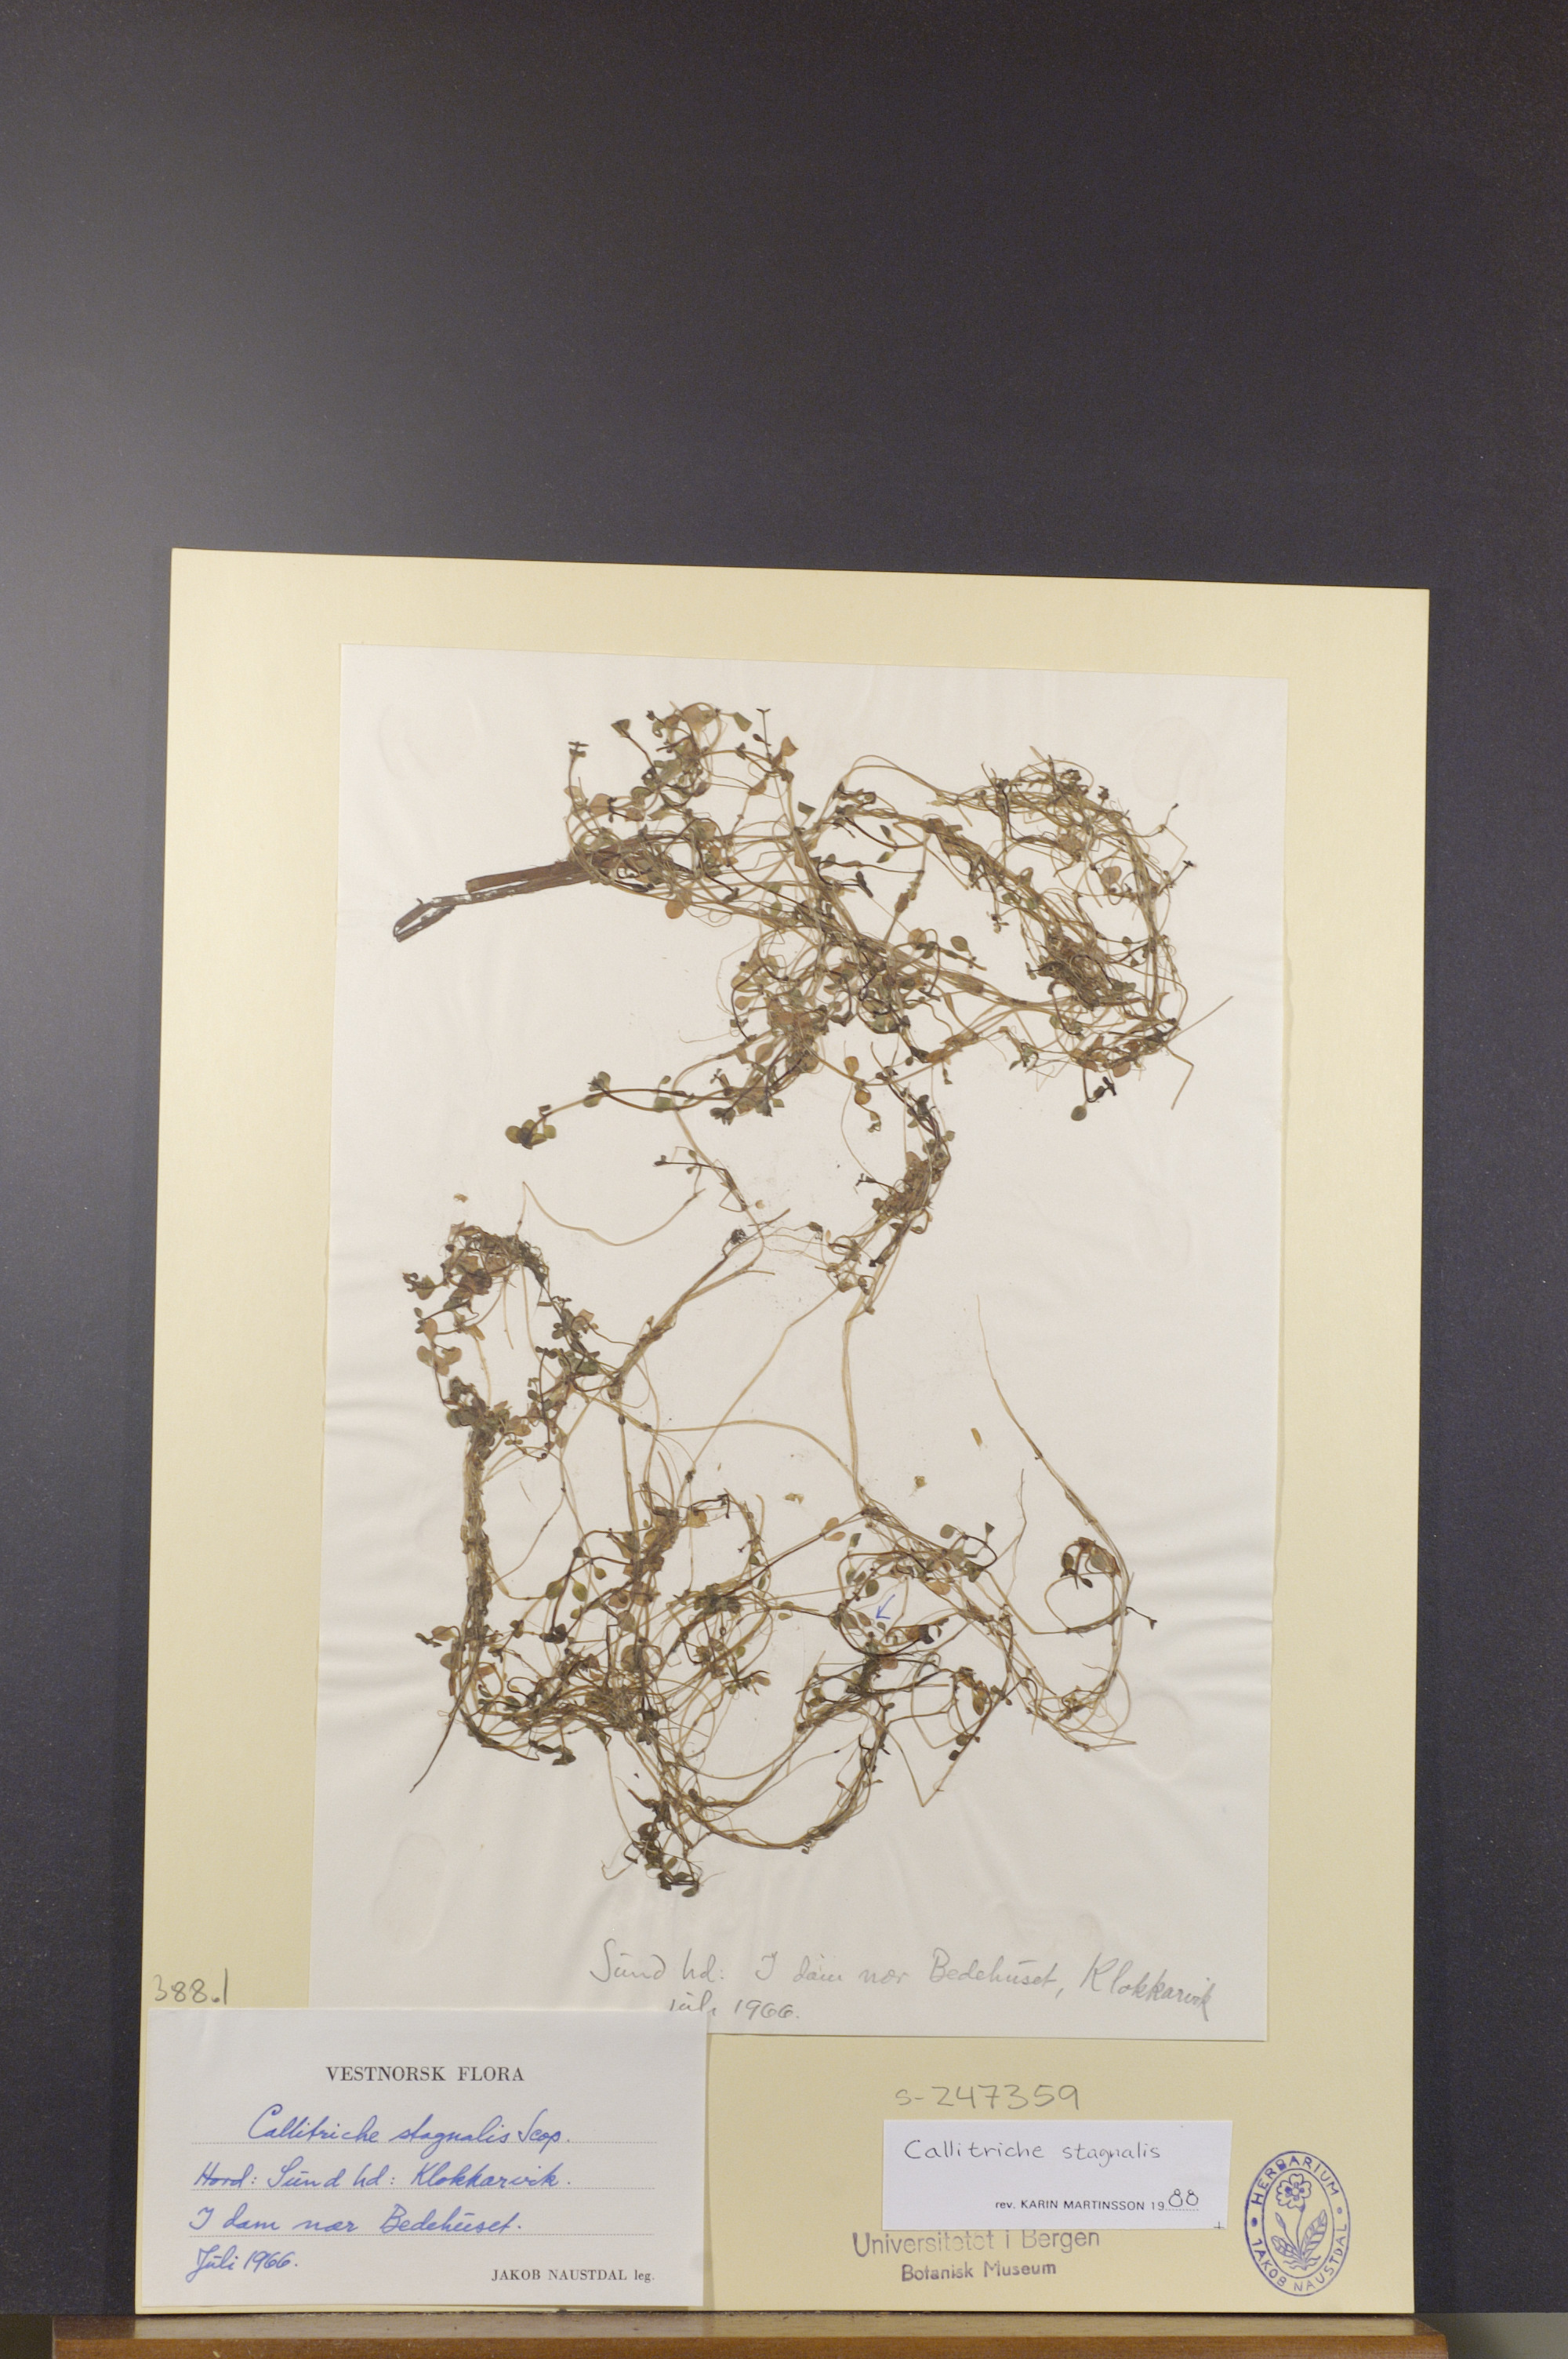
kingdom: Plantae
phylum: Tracheophyta
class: Magnoliopsida
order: Lamiales
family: Plantaginaceae
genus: Callitriche
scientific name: Callitriche stagnalis
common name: Common water-starwort
